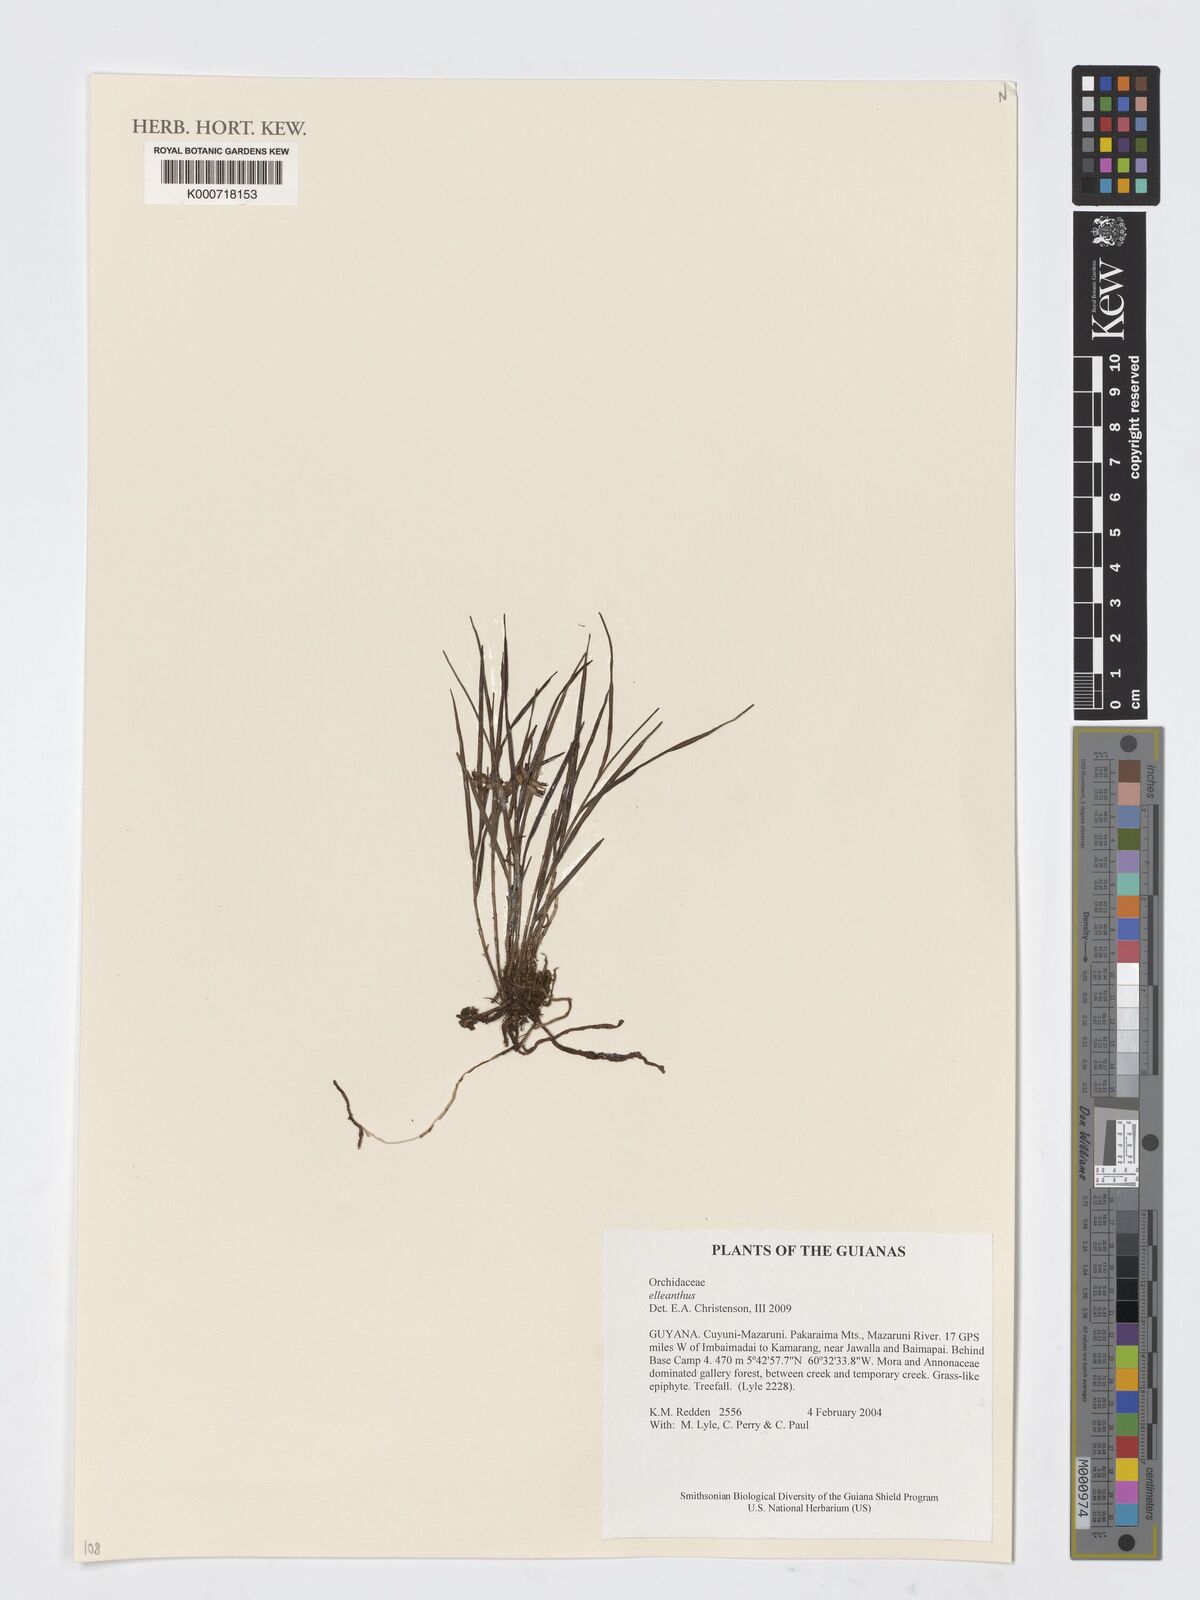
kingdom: Plantae
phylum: Tracheophyta
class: Liliopsida
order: Asparagales
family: Orchidaceae
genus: Elleanthus
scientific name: Elleanthus
